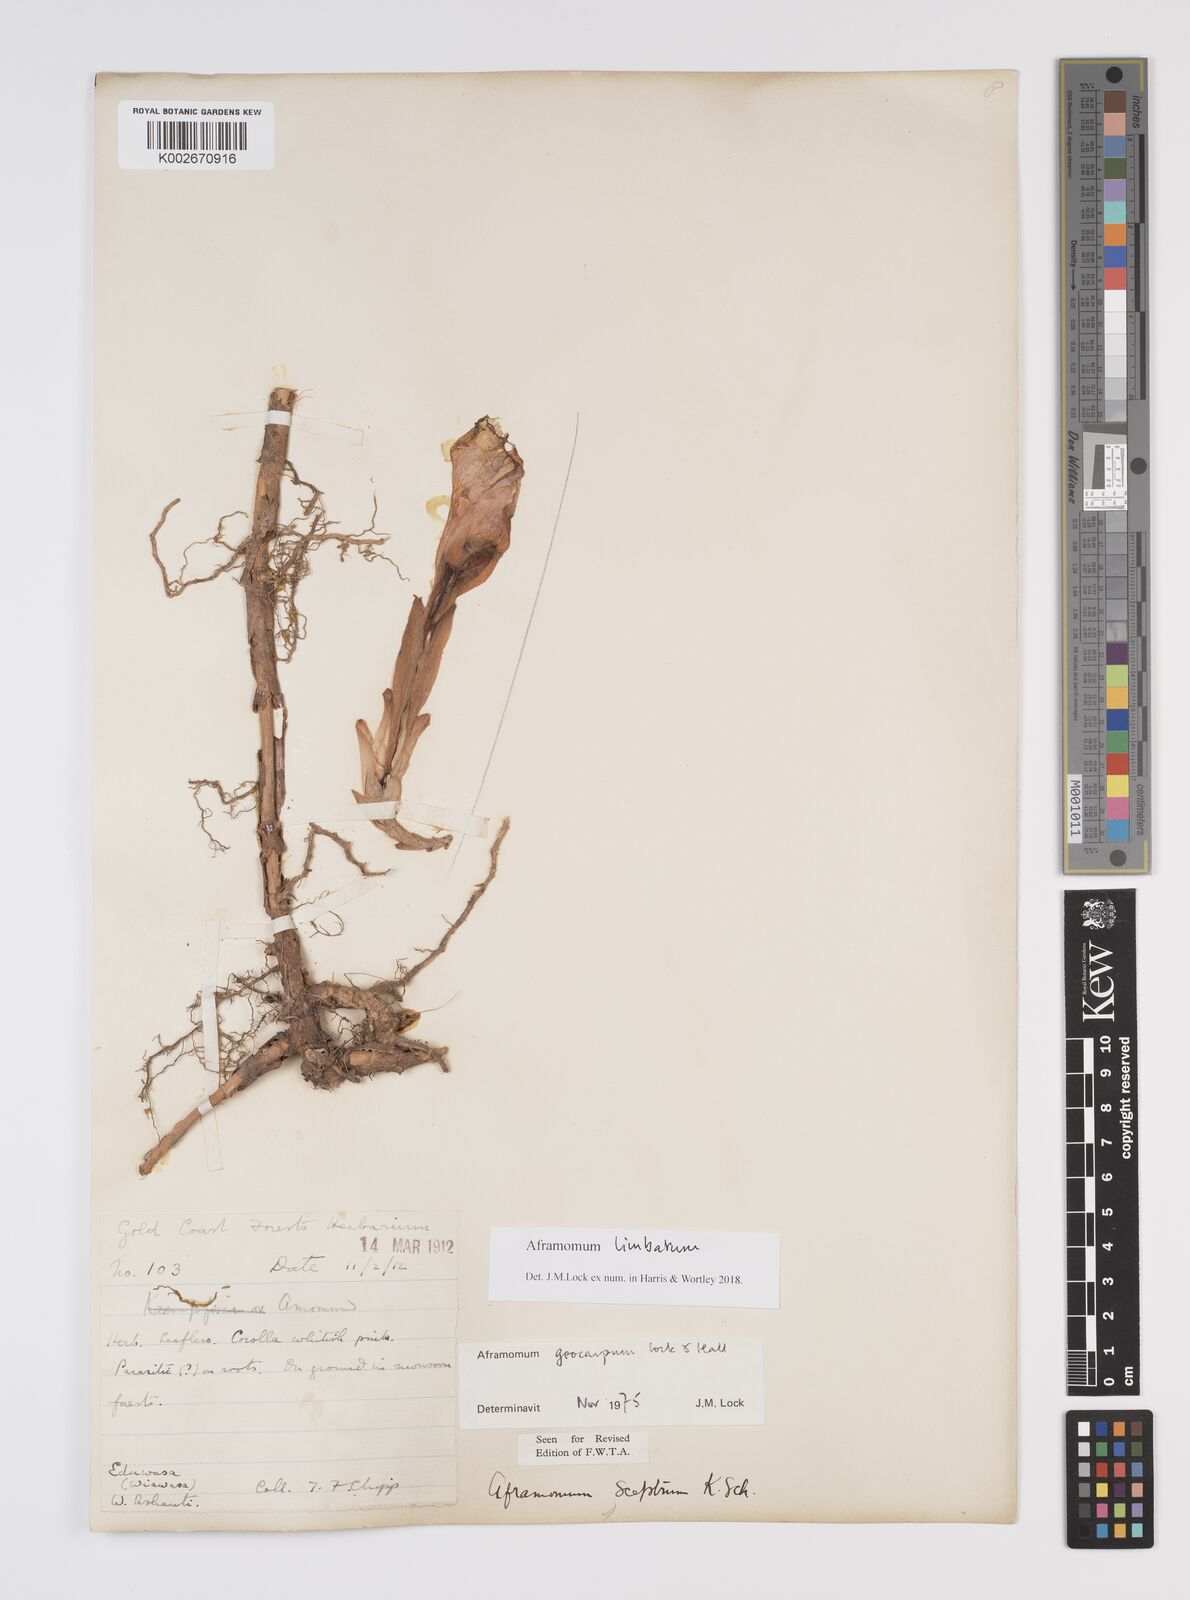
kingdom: Plantae
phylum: Tracheophyta
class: Liliopsida
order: Zingiberales
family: Zingiberaceae
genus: Aframomum
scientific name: Aframomum limbatum
